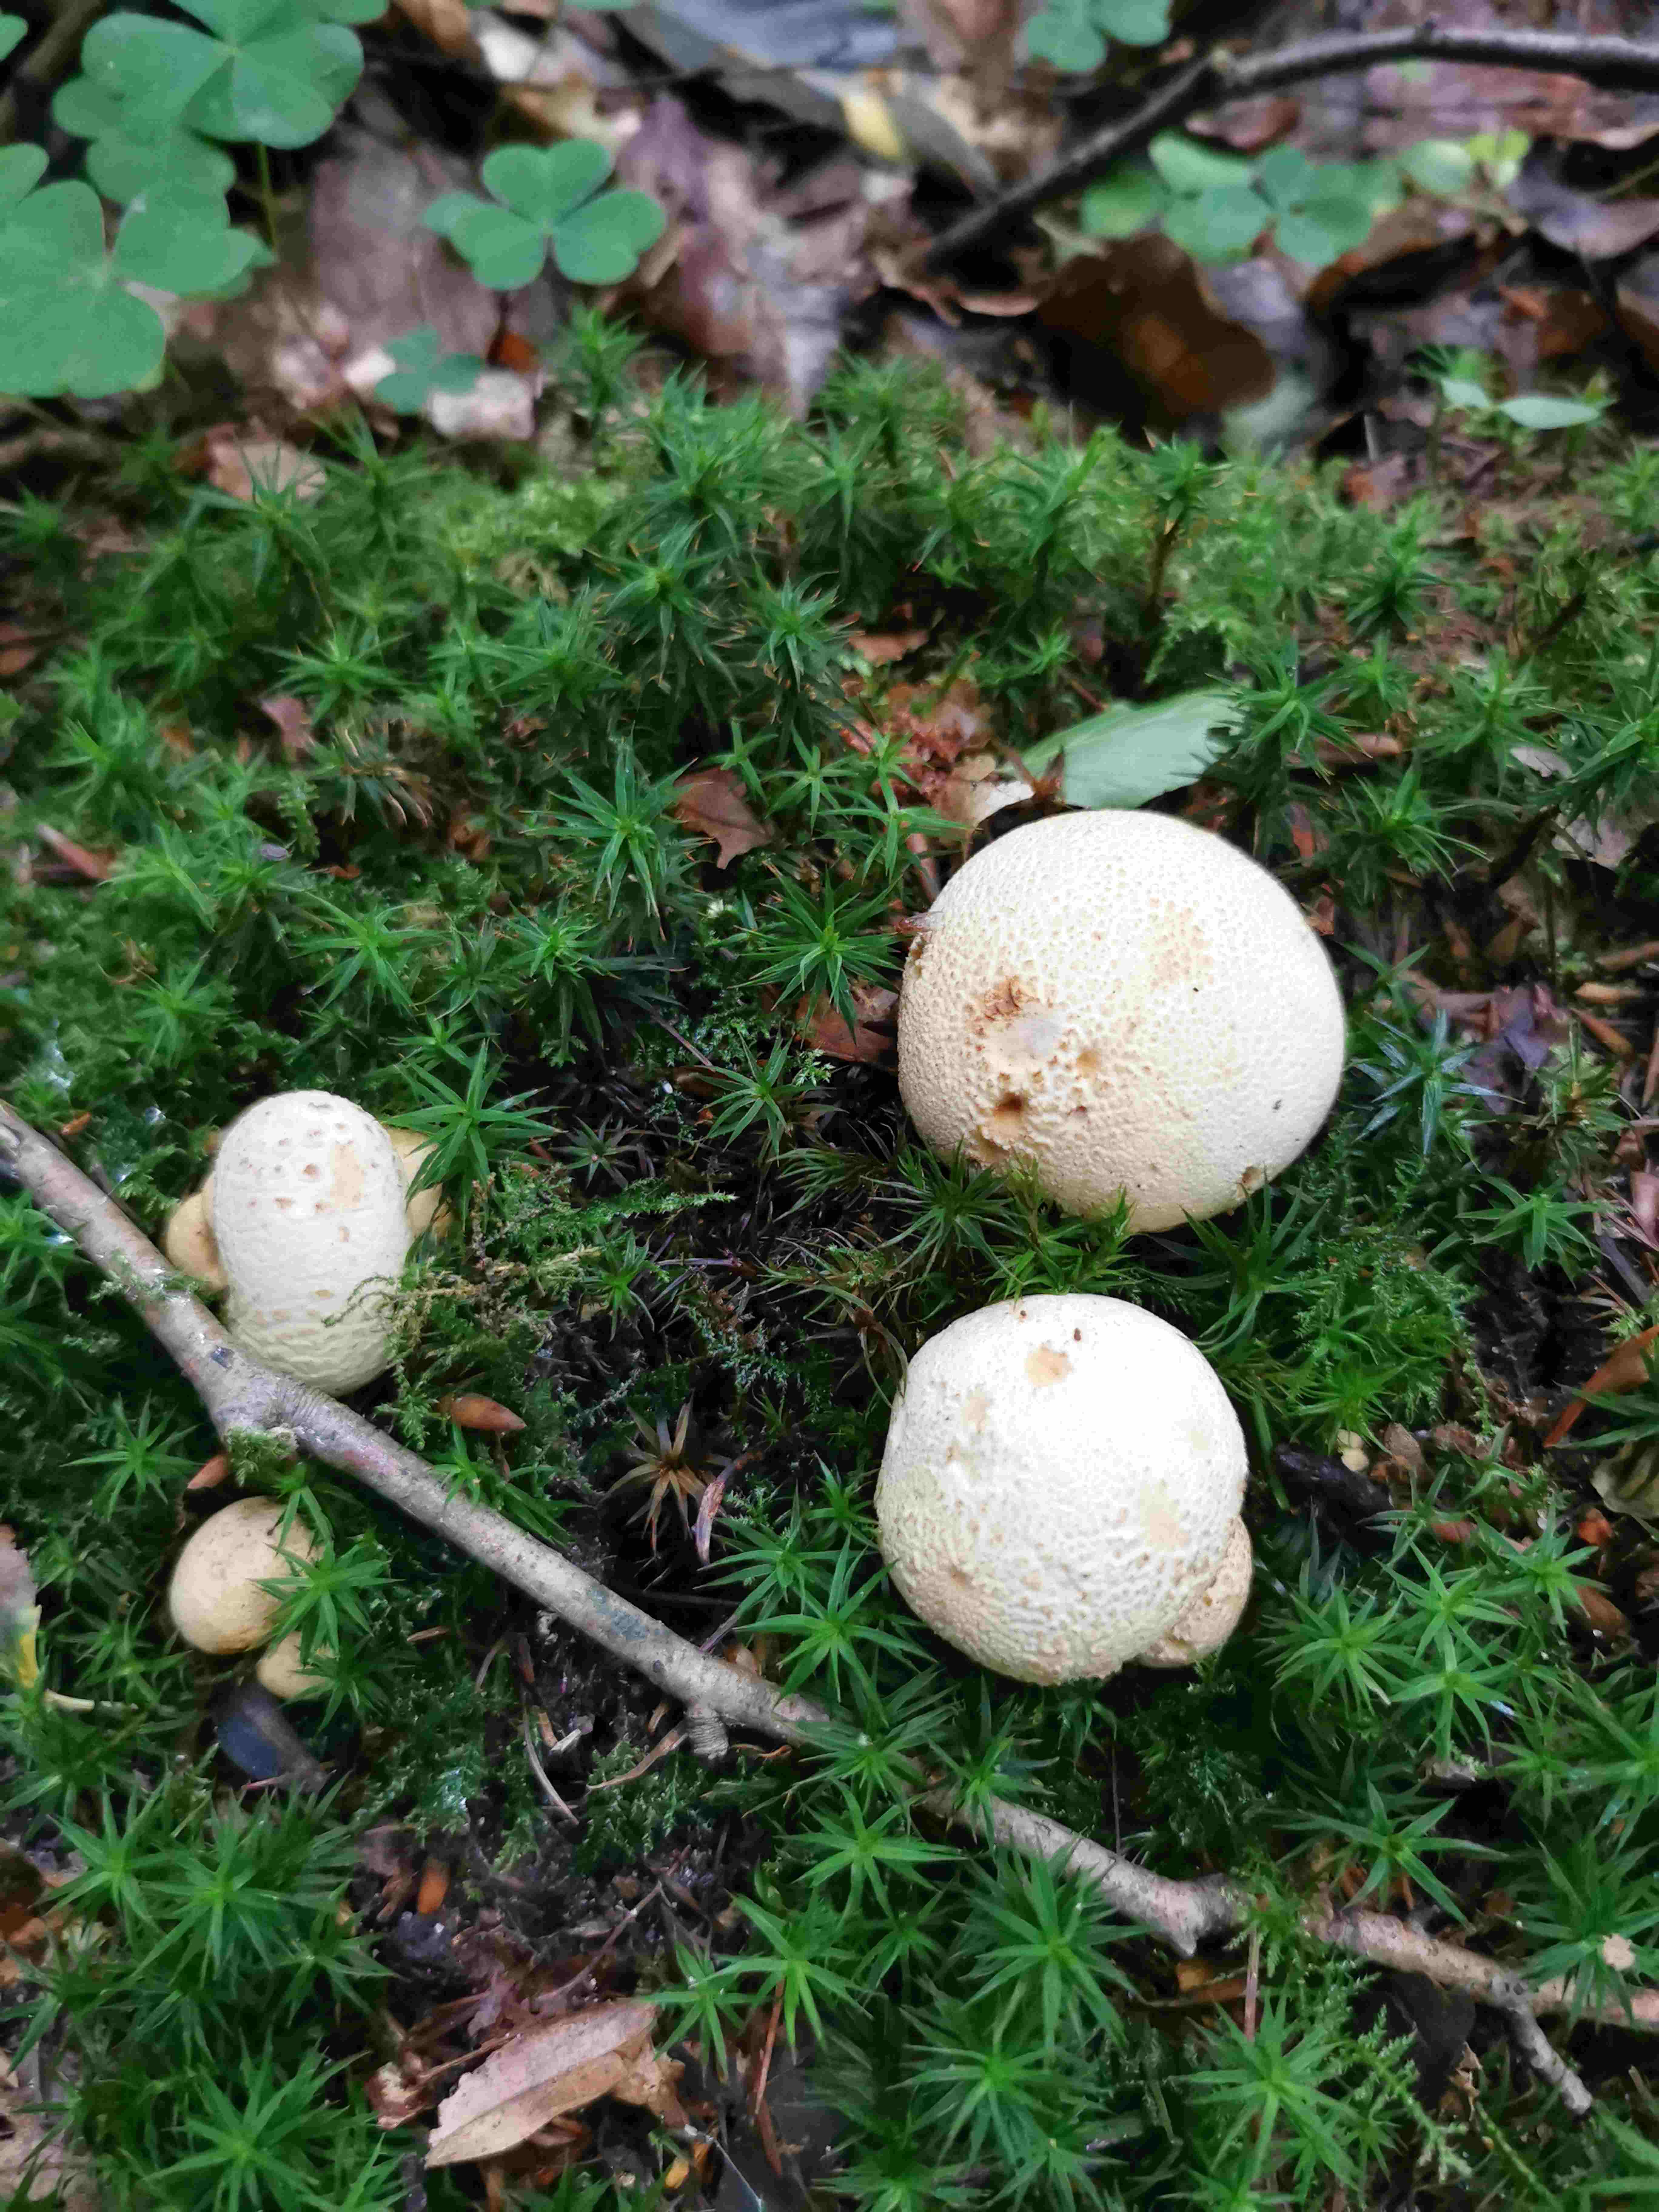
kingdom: Fungi
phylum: Basidiomycota
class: Agaricomycetes
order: Boletales
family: Sclerodermataceae
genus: Scleroderma
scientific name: Scleroderma citrinum
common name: almindelig bruskbold
